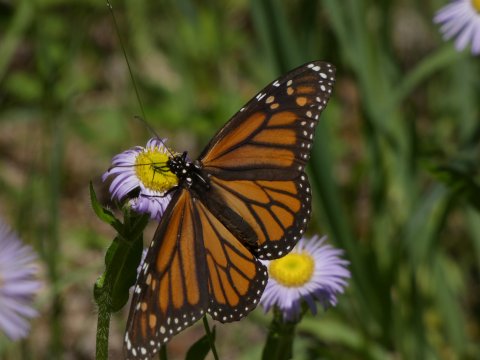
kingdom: Animalia
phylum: Arthropoda
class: Insecta
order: Lepidoptera
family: Nymphalidae
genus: Danaus
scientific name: Danaus plexippus
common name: Monarch
